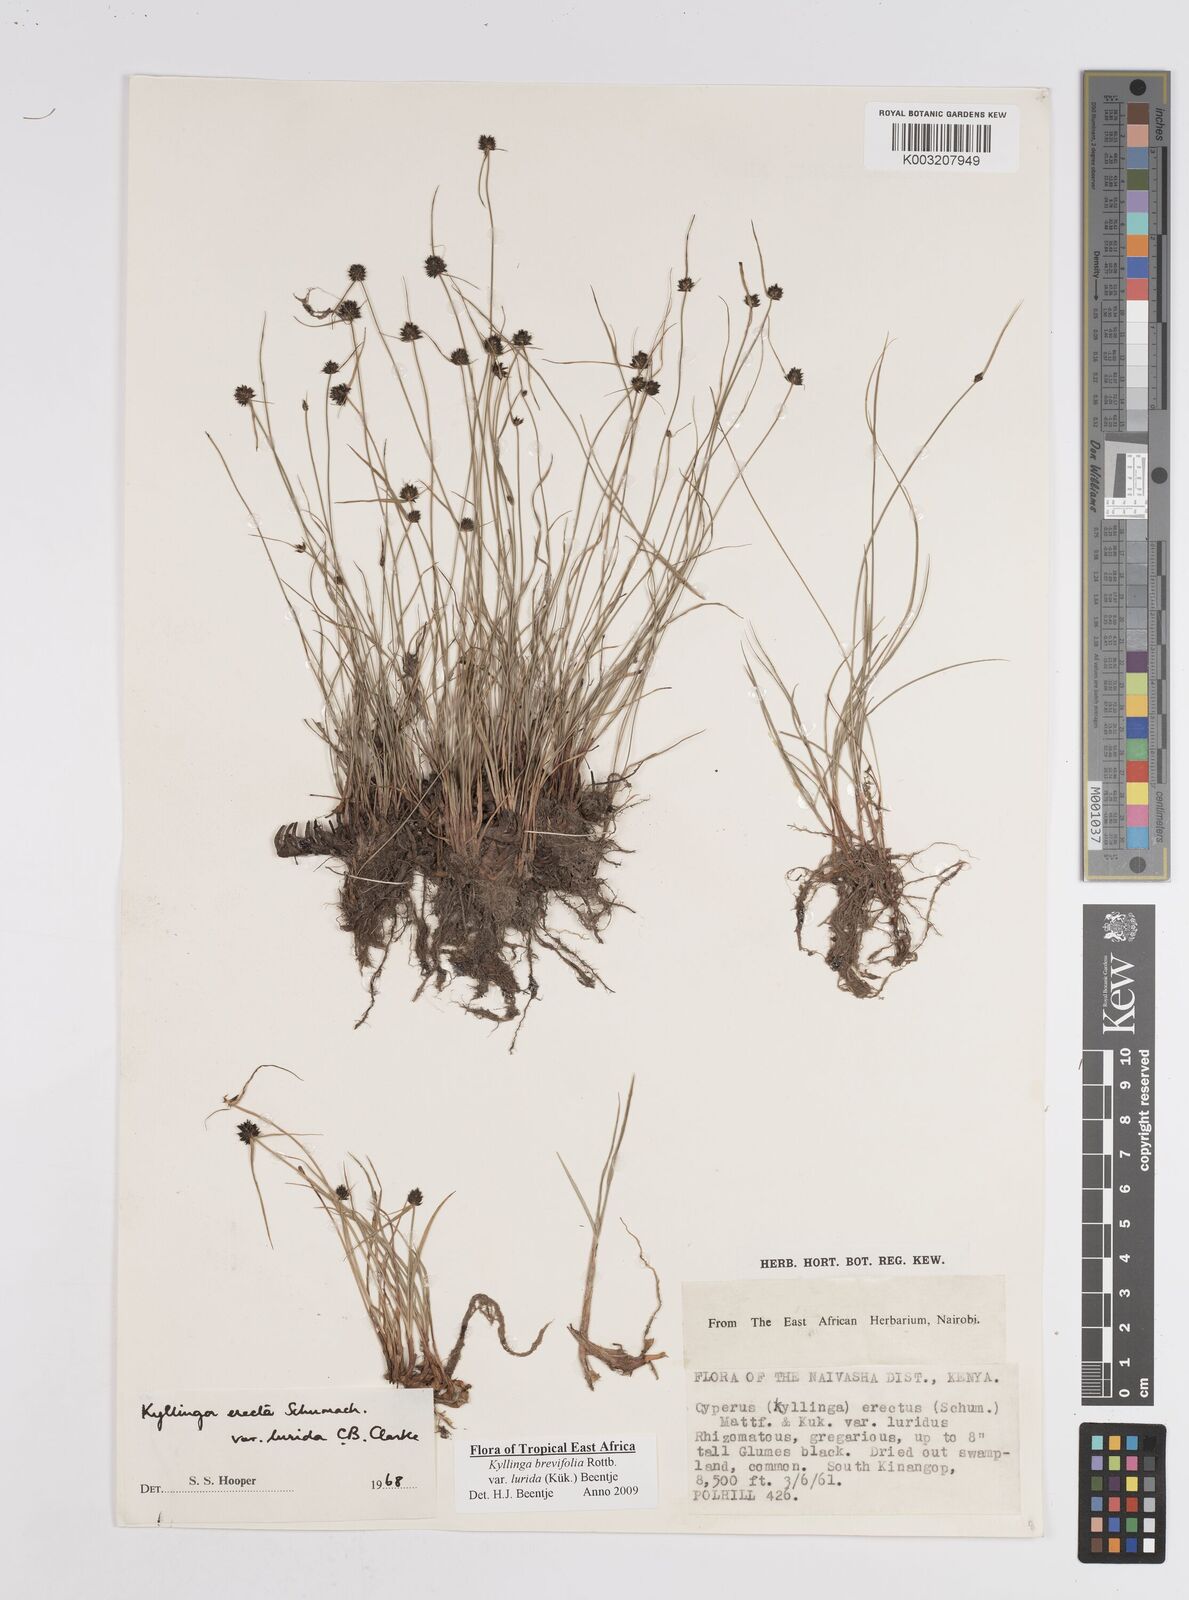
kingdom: Plantae
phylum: Tracheophyta
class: Liliopsida
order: Poales
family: Cyperaceae
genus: Cyperus
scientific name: Cyperus erectus
